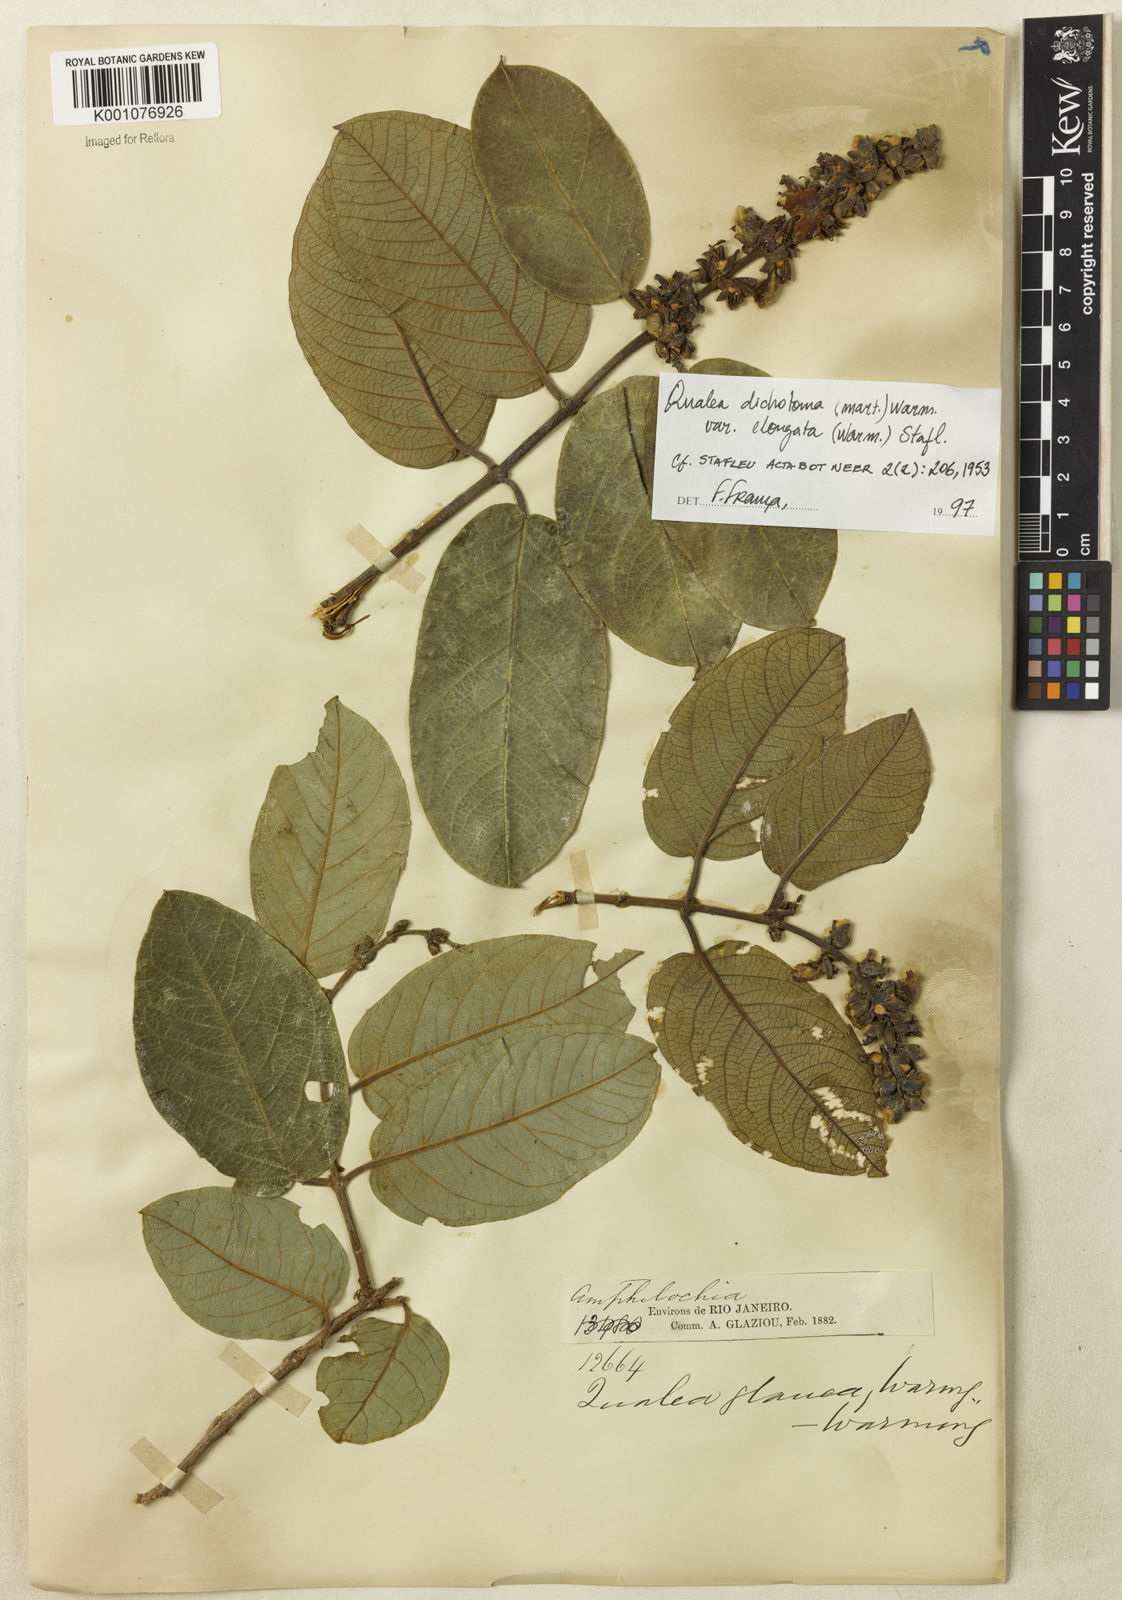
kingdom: Plantae
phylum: Tracheophyta
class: Magnoliopsida
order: Myrtales
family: Vochysiaceae
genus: Qualea
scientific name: Qualea cordata
